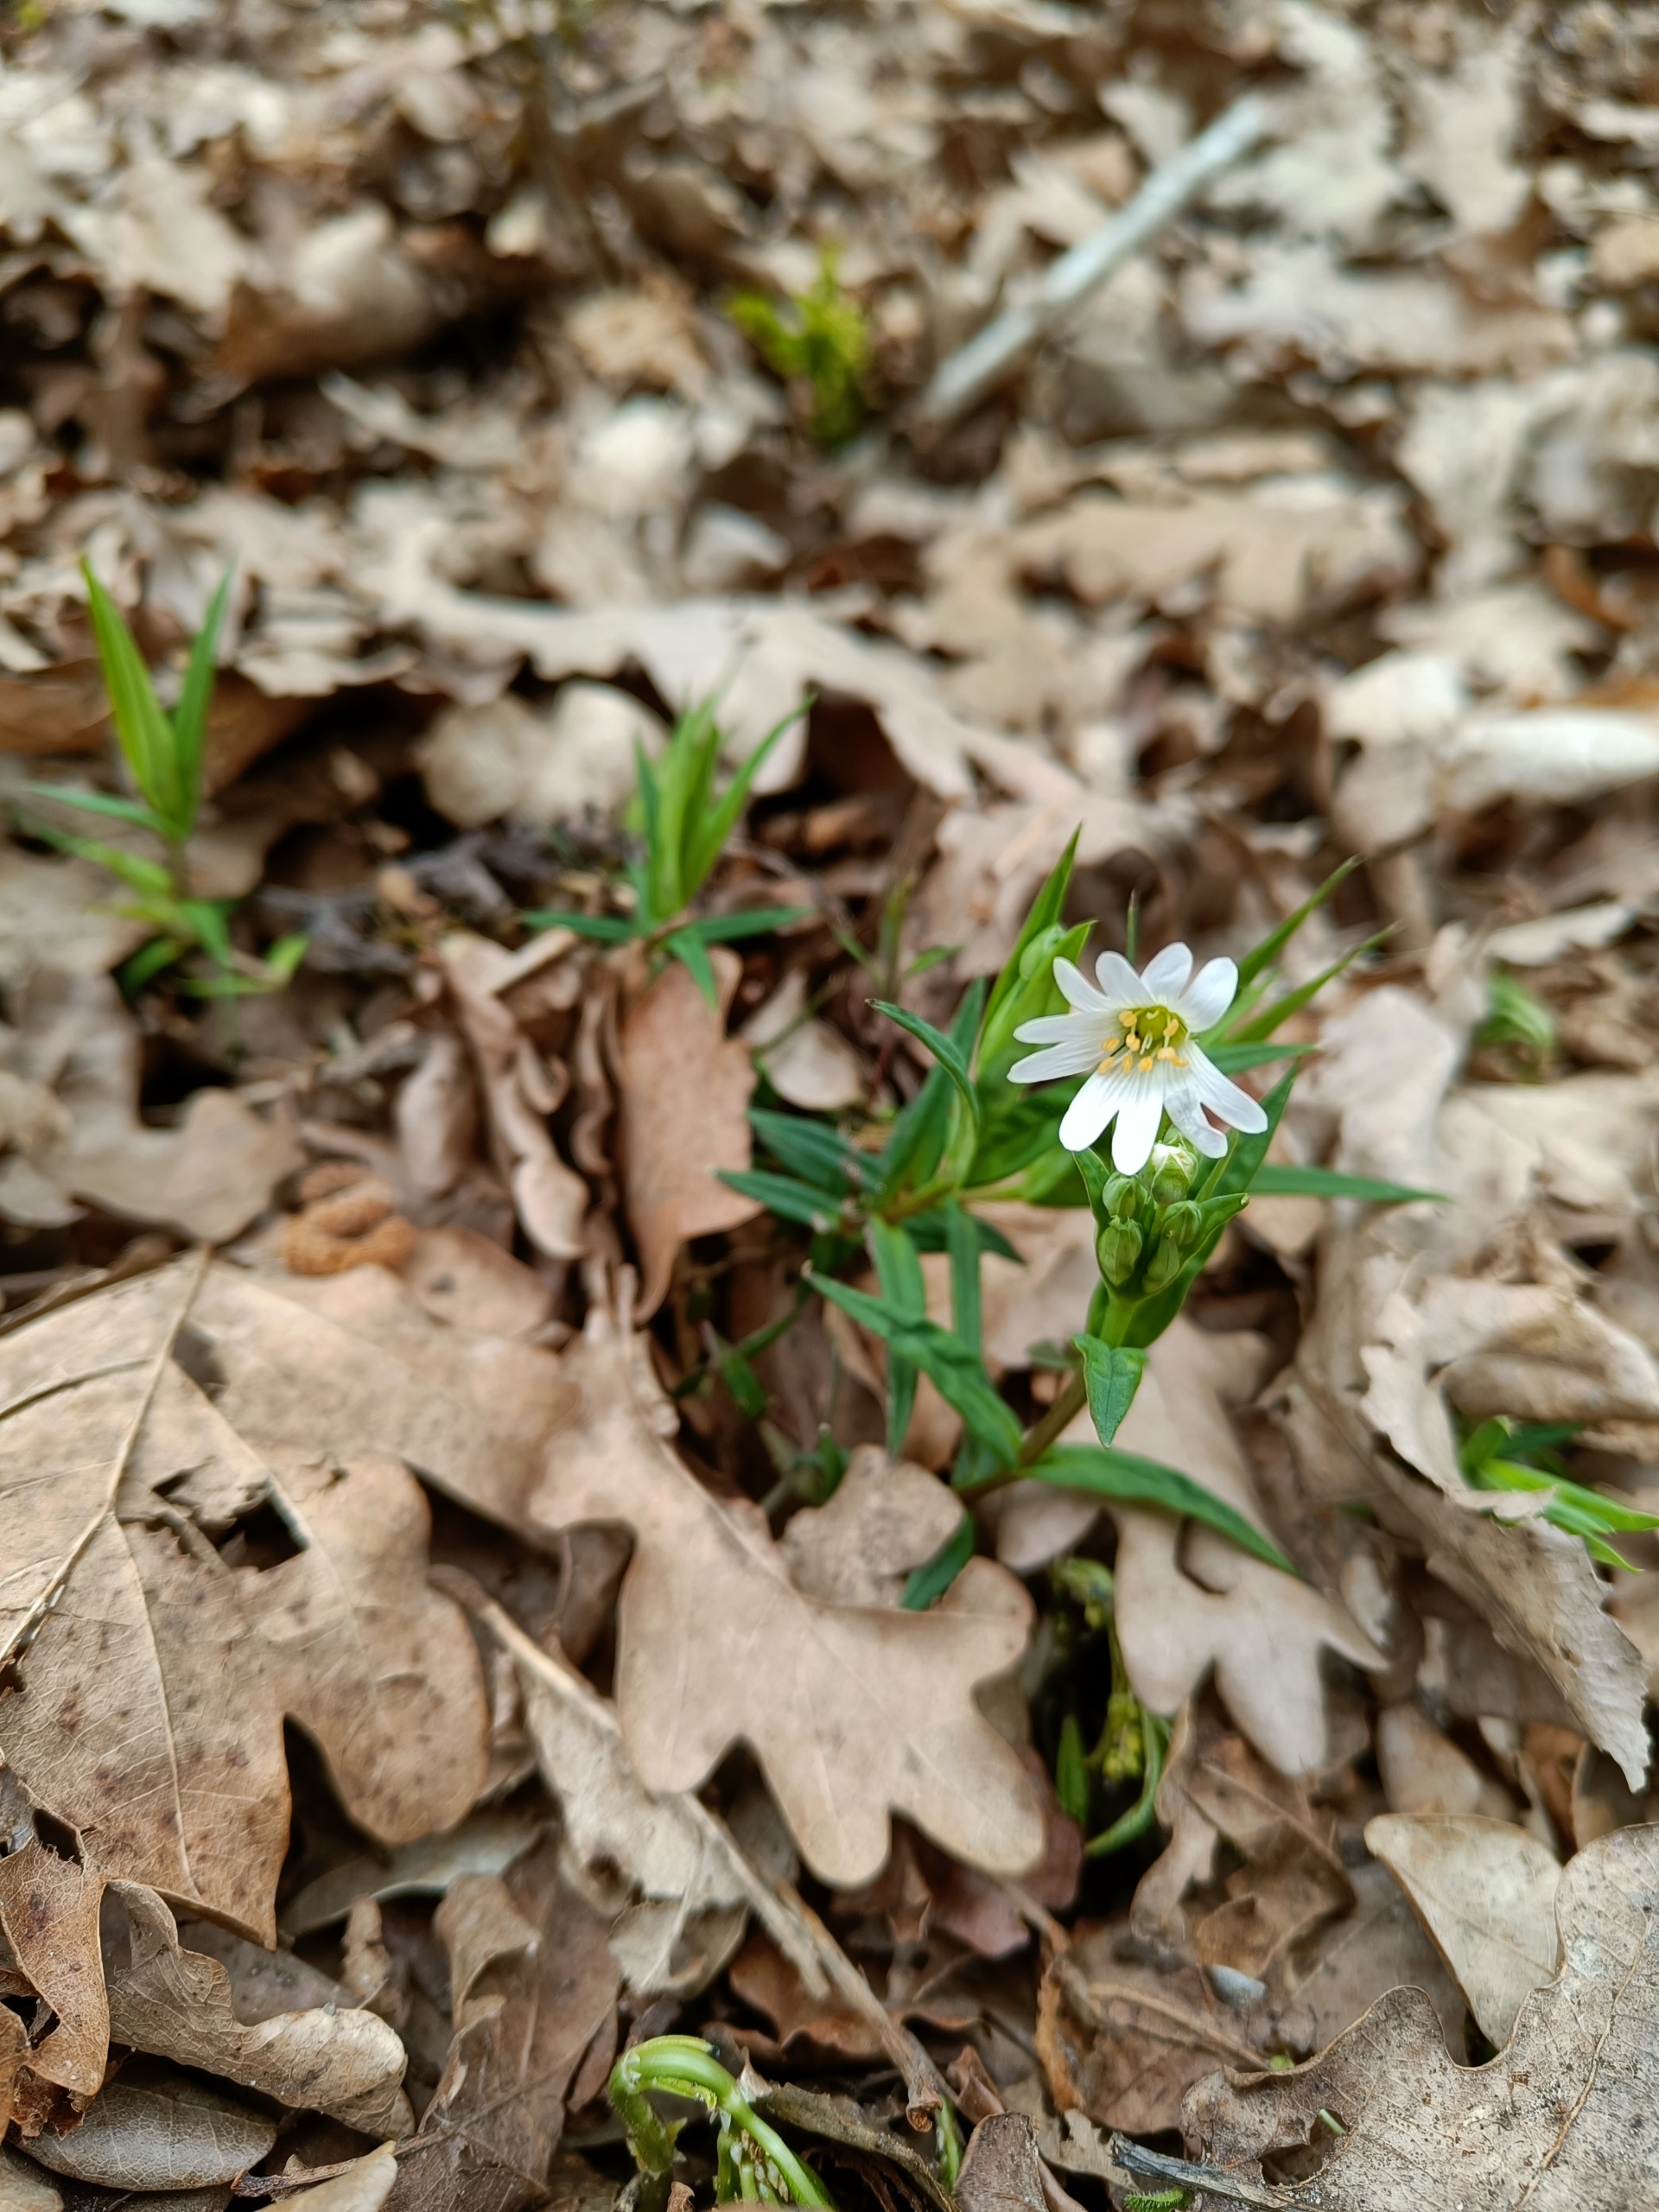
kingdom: Plantae
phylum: Tracheophyta
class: Magnoliopsida
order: Caryophyllales
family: Caryophyllaceae
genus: Rabelera
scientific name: Rabelera holostea
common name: Stor fladstjerne
